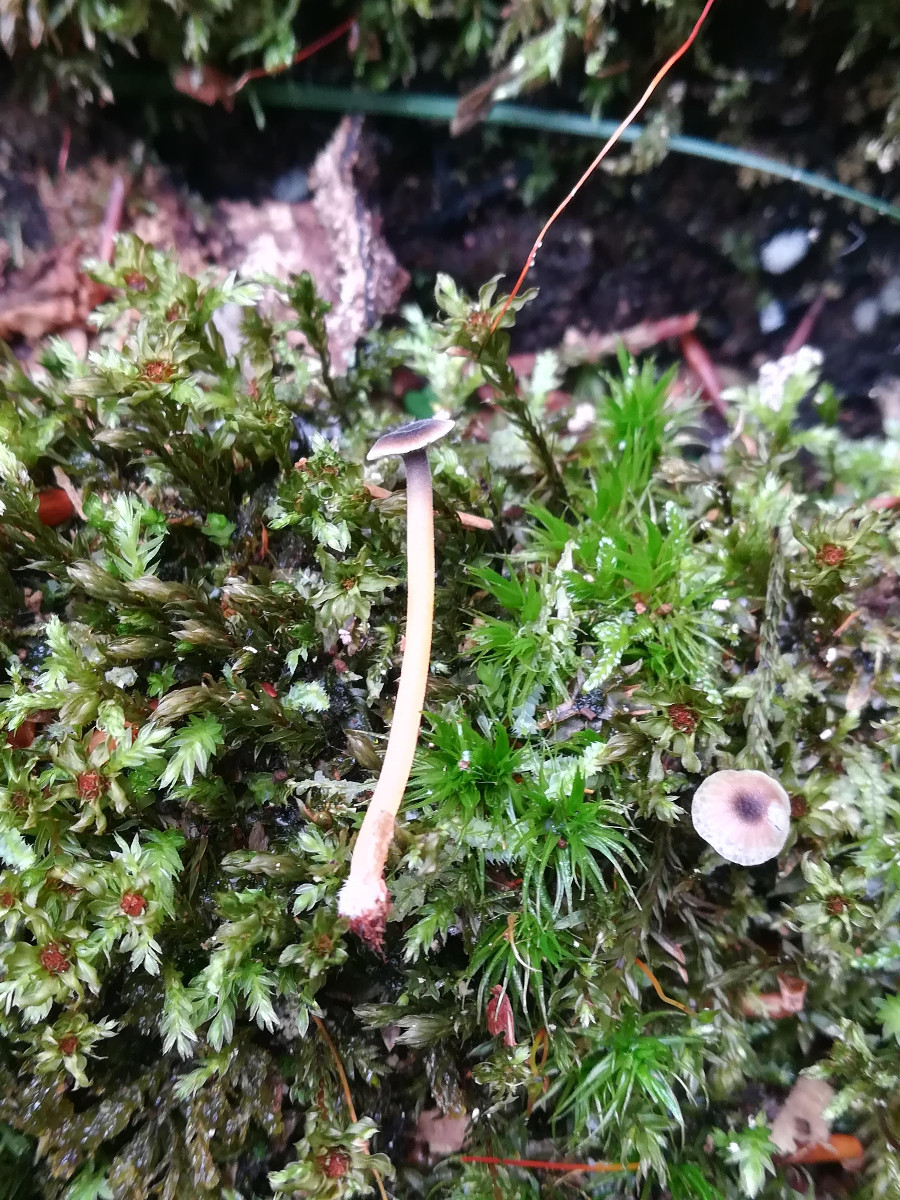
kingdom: Fungi
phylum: Basidiomycota
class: Agaricomycetes
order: Hymenochaetales
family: Rickenellaceae
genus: Rickenella
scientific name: Rickenella swartzii
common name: finstokket mosnavlehat
